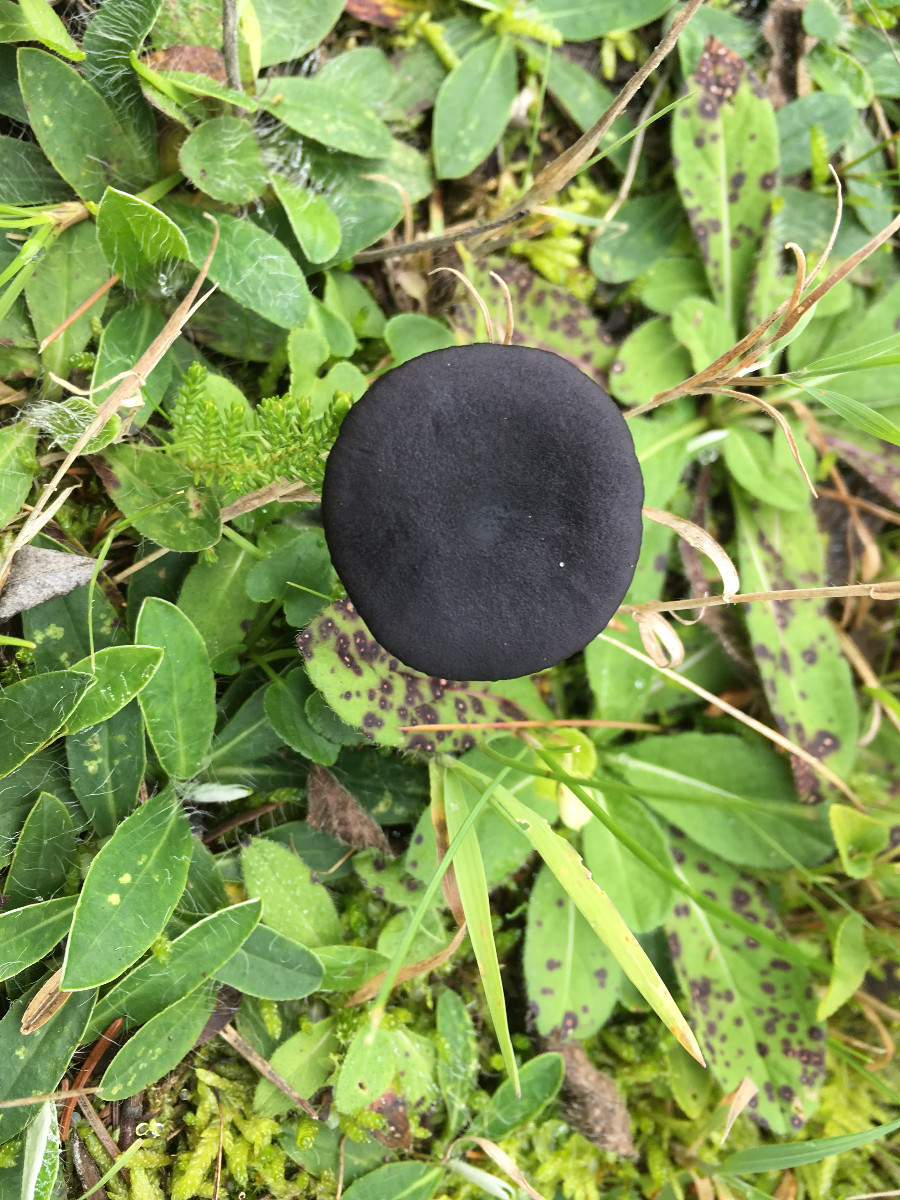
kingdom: Fungi
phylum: Basidiomycota
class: Agaricomycetes
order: Agaricales
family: Entolomataceae
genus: Entoloma
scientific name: Entoloma
